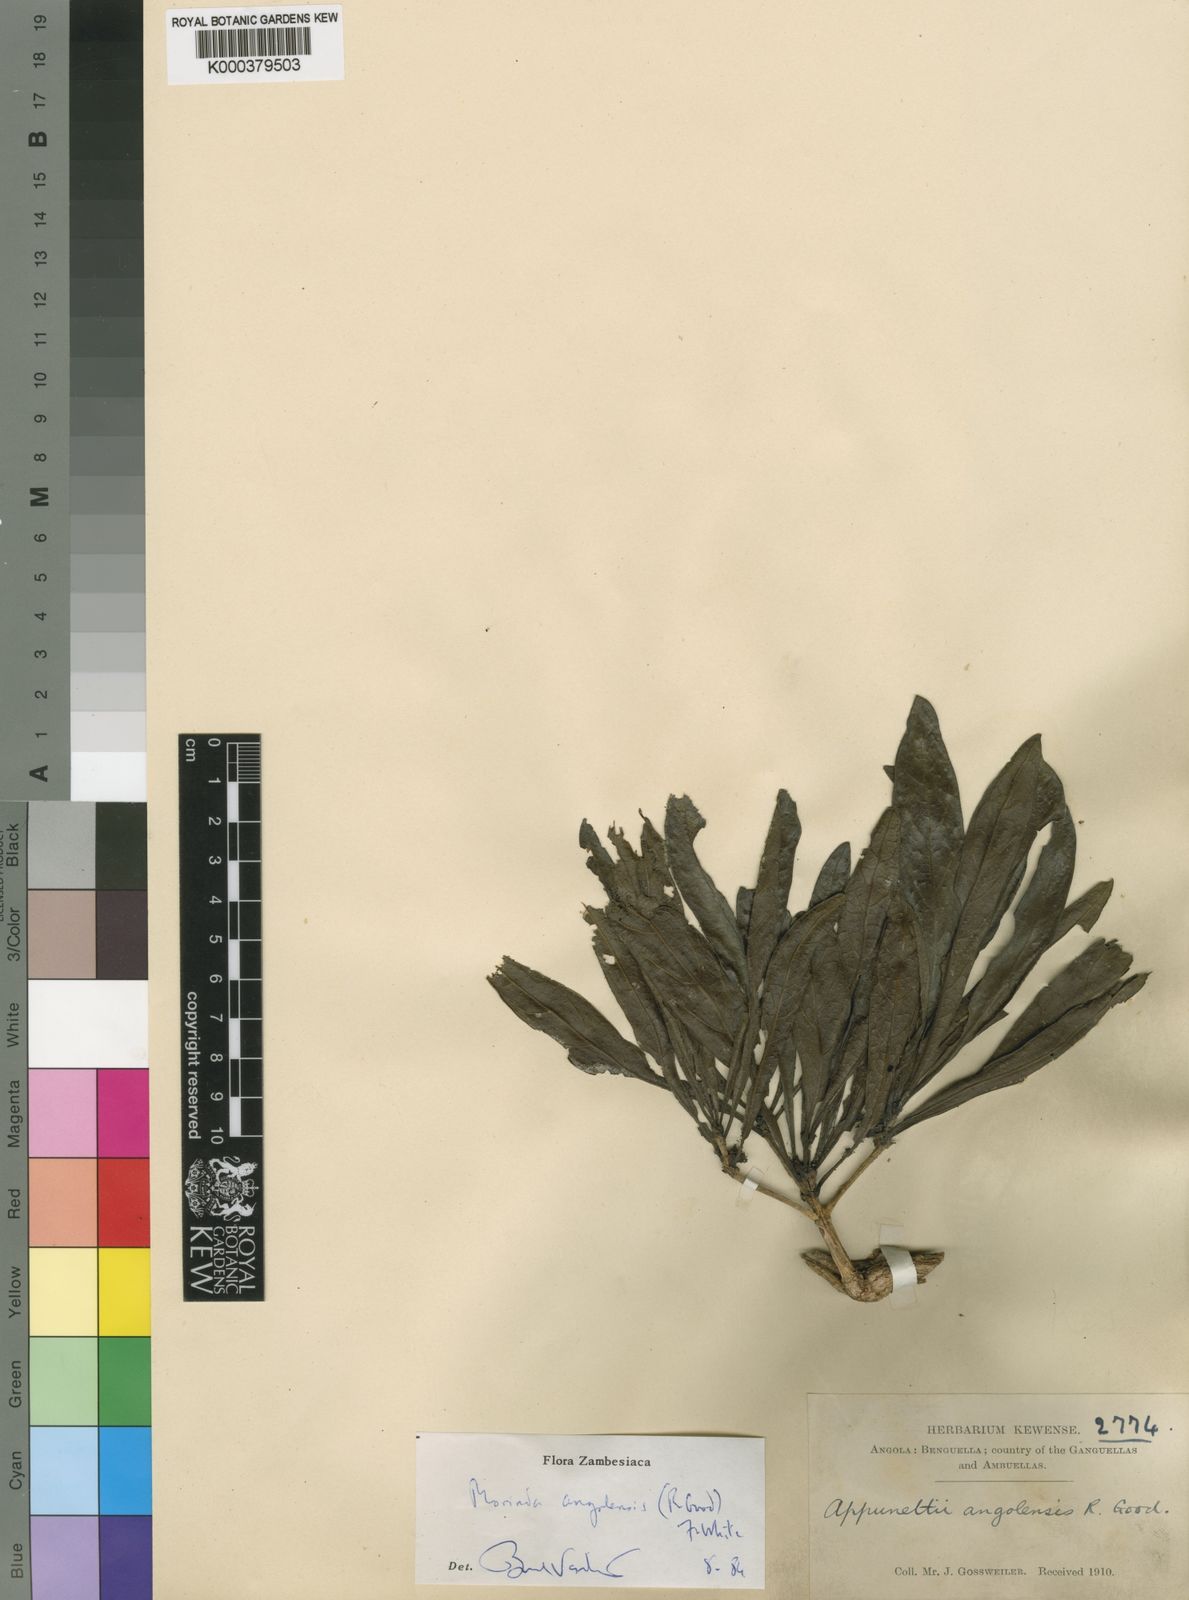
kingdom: Plantae
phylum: Tracheophyta
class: Magnoliopsida
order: Gentianales
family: Rubiaceae
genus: Morinda
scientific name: Morinda angolensis
